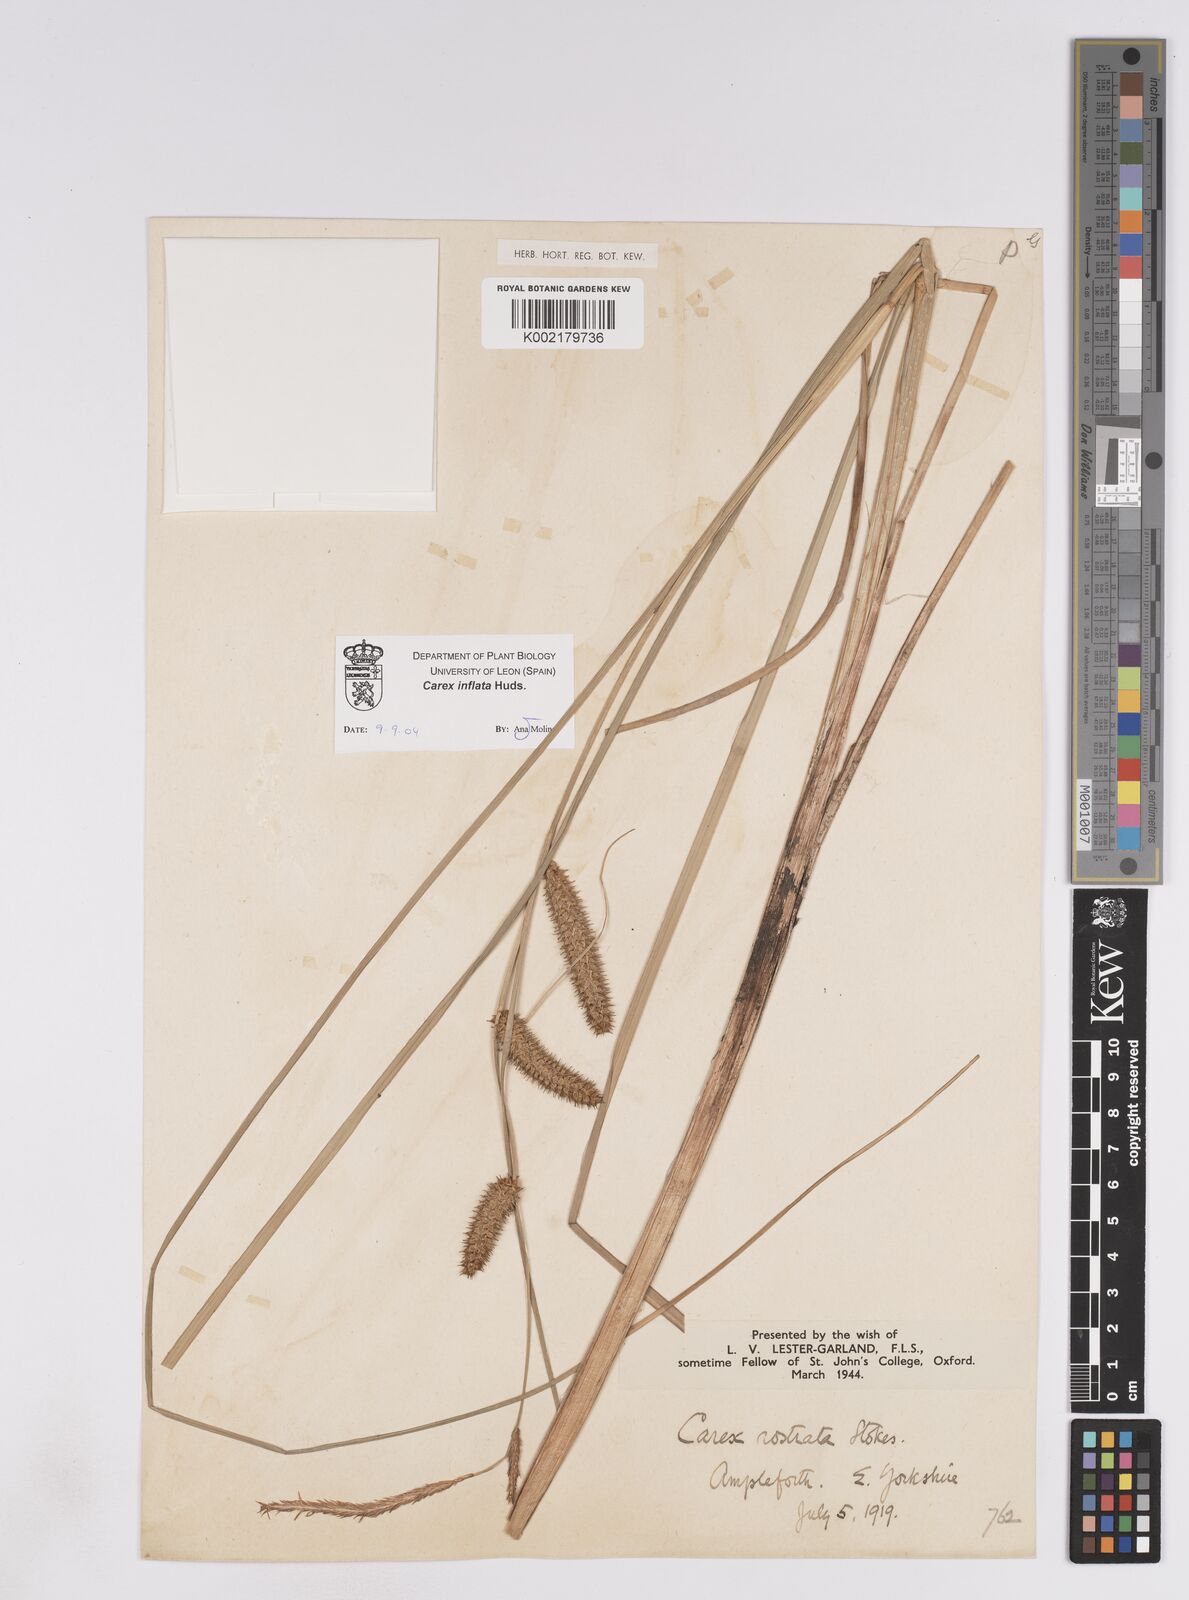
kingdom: Plantae
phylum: Tracheophyta
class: Liliopsida
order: Poales
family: Cyperaceae
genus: Carex
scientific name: Carex rostrata
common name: Bottle sedge
